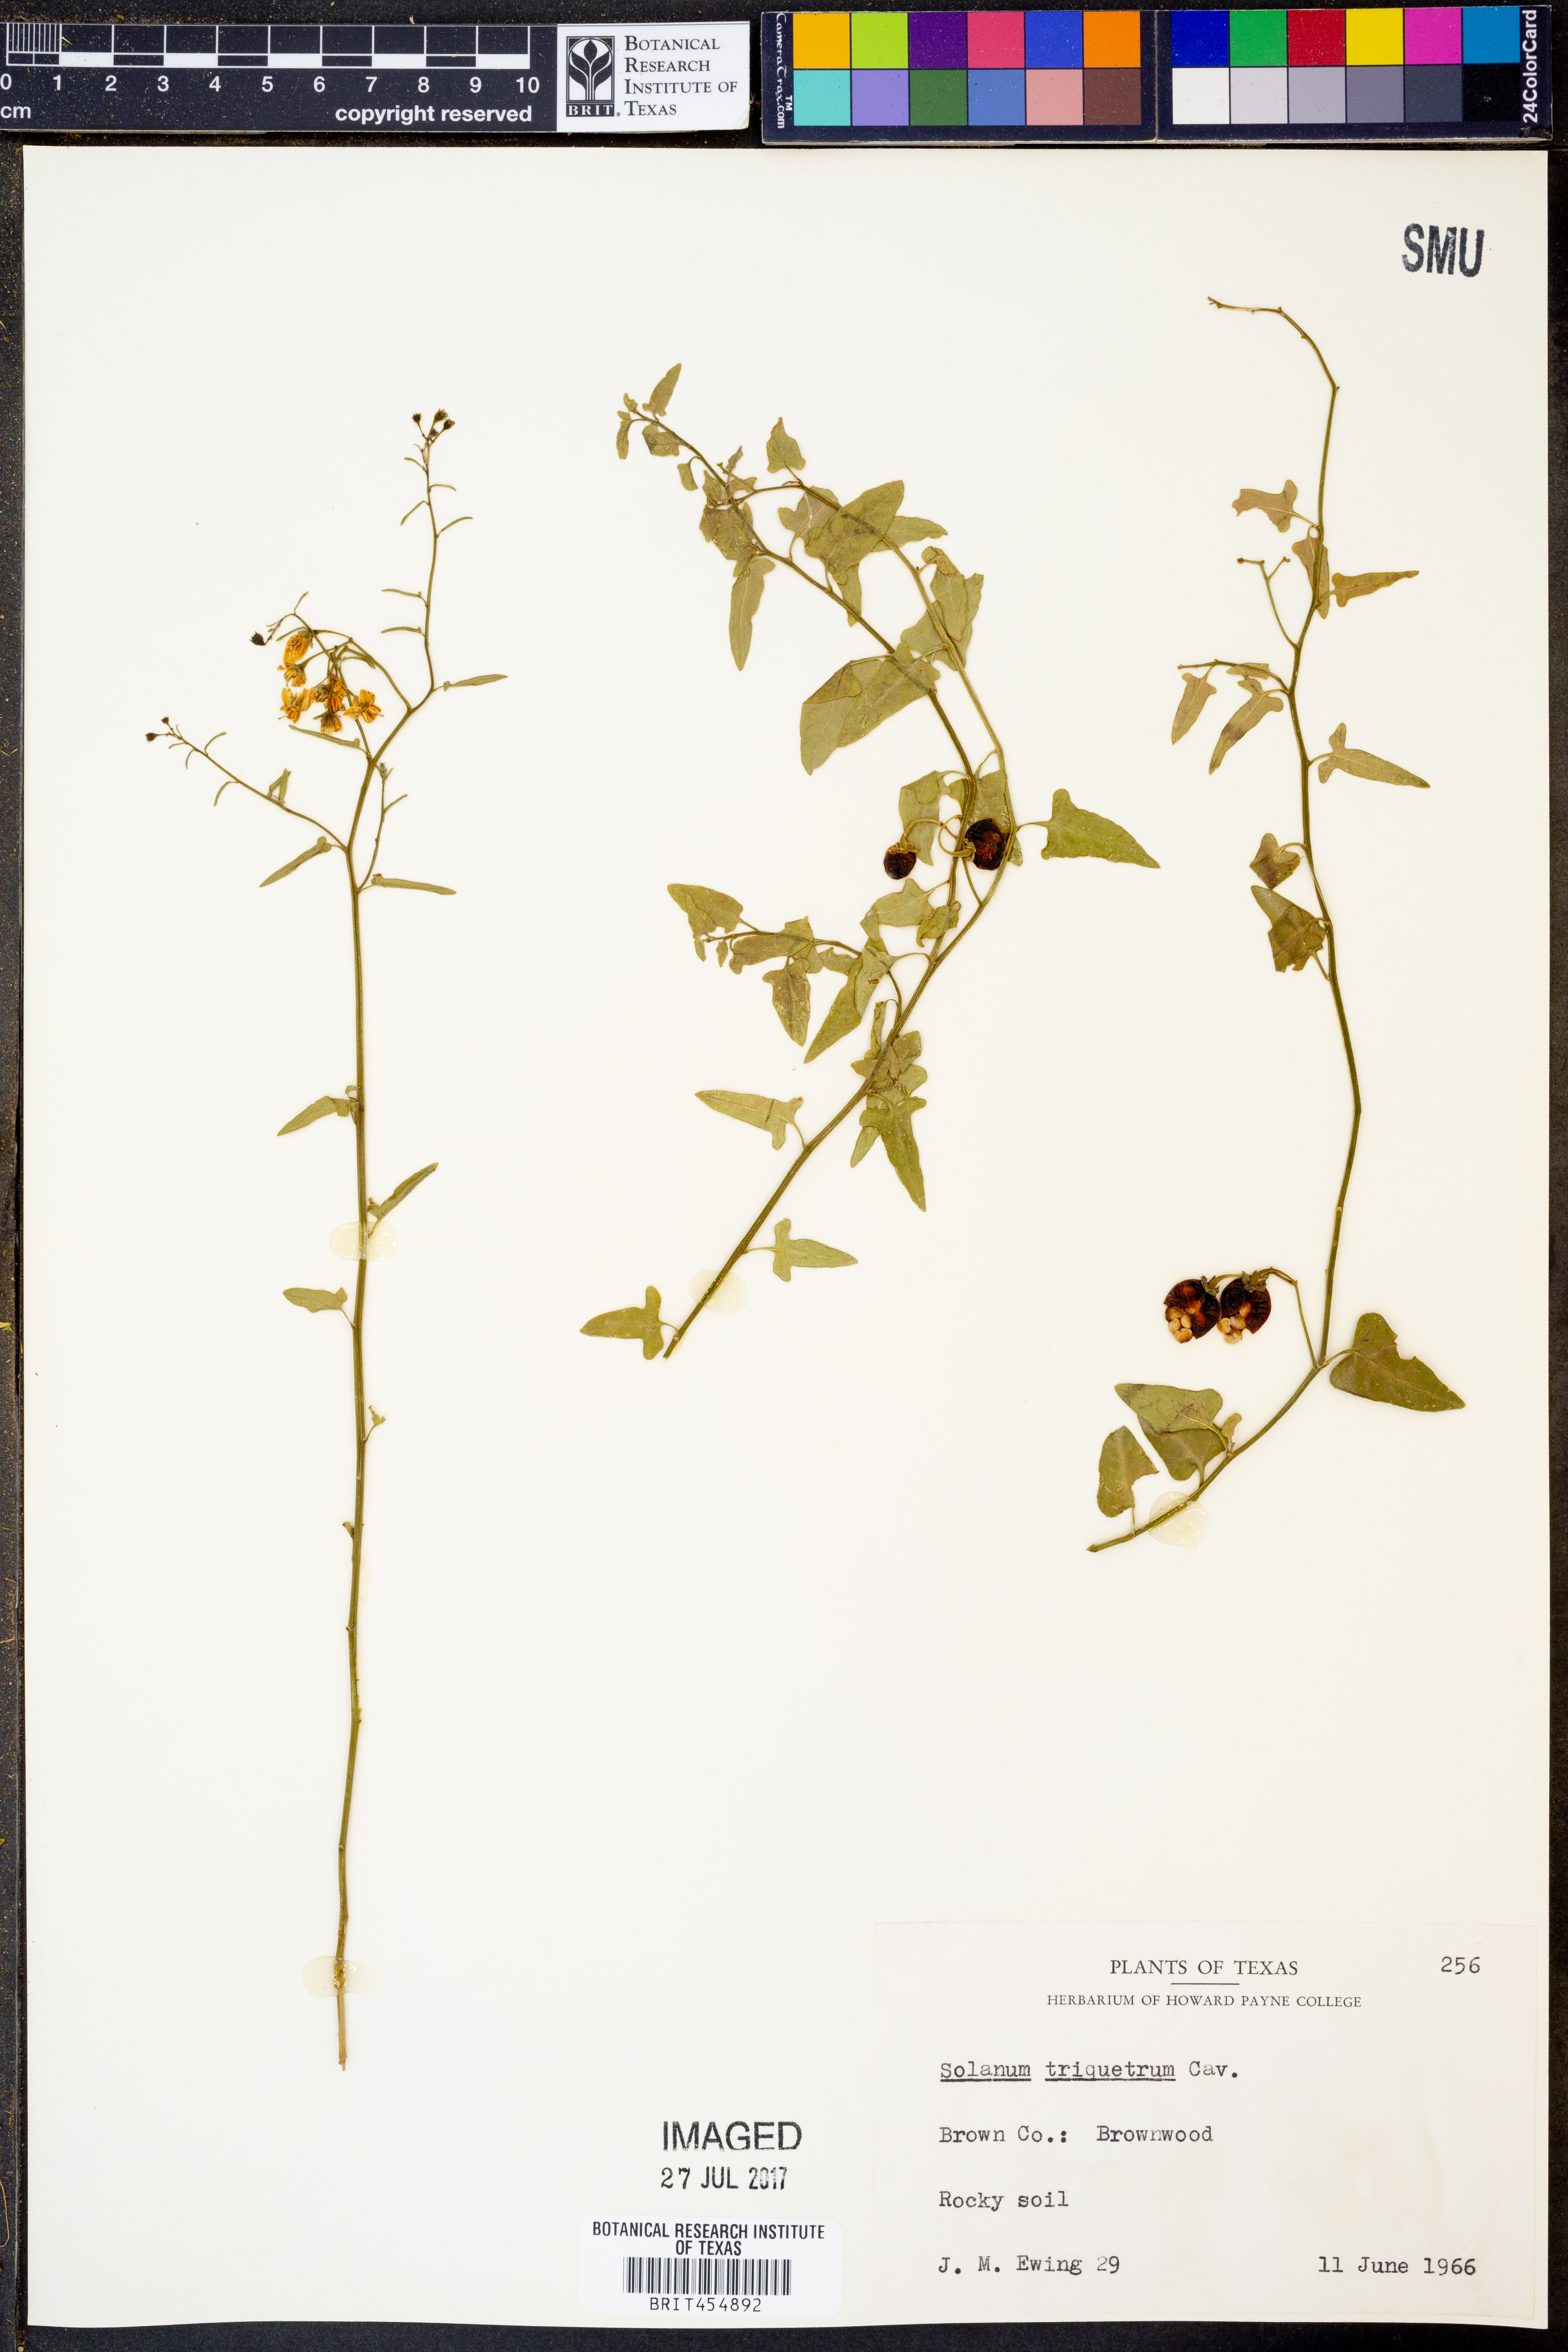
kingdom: Plantae
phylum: Tracheophyta
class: Magnoliopsida
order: Solanales
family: Solanaceae
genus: Solanum
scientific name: Solanum triquetrum
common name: Texas nightshade
